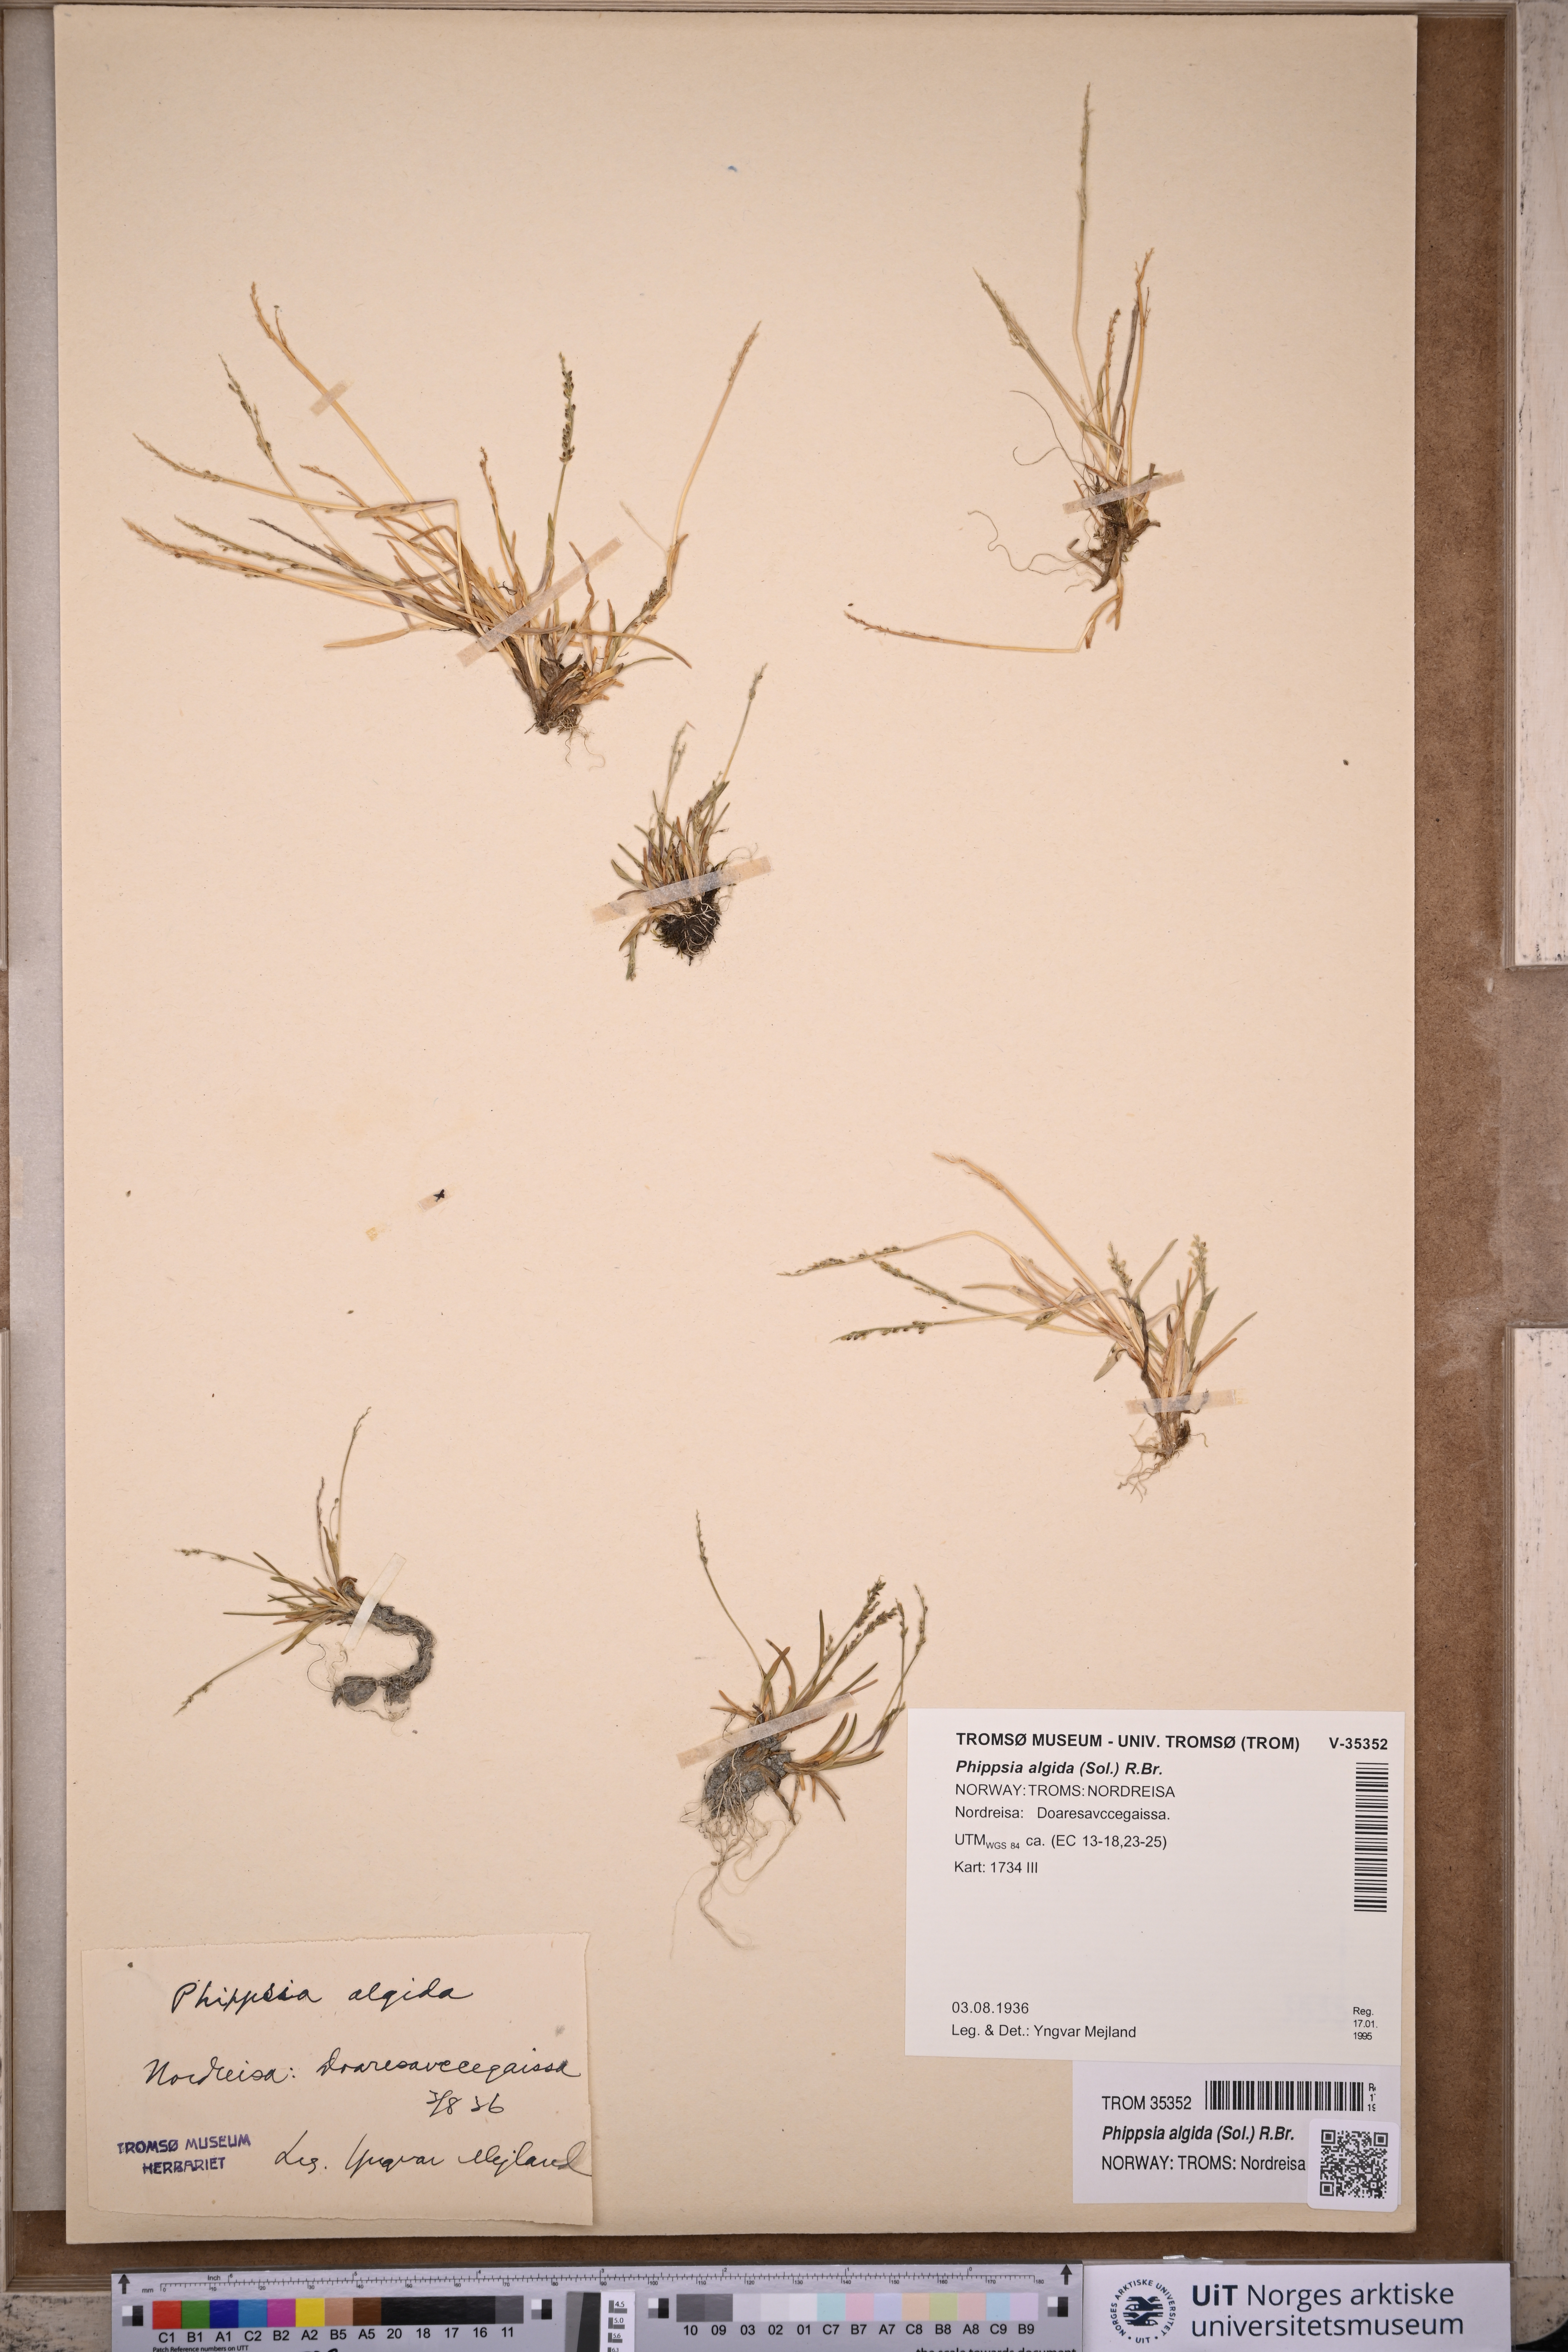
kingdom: Plantae
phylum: Tracheophyta
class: Liliopsida
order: Poales
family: Poaceae
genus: Phippsia
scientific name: Phippsia algida
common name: Ice grass
